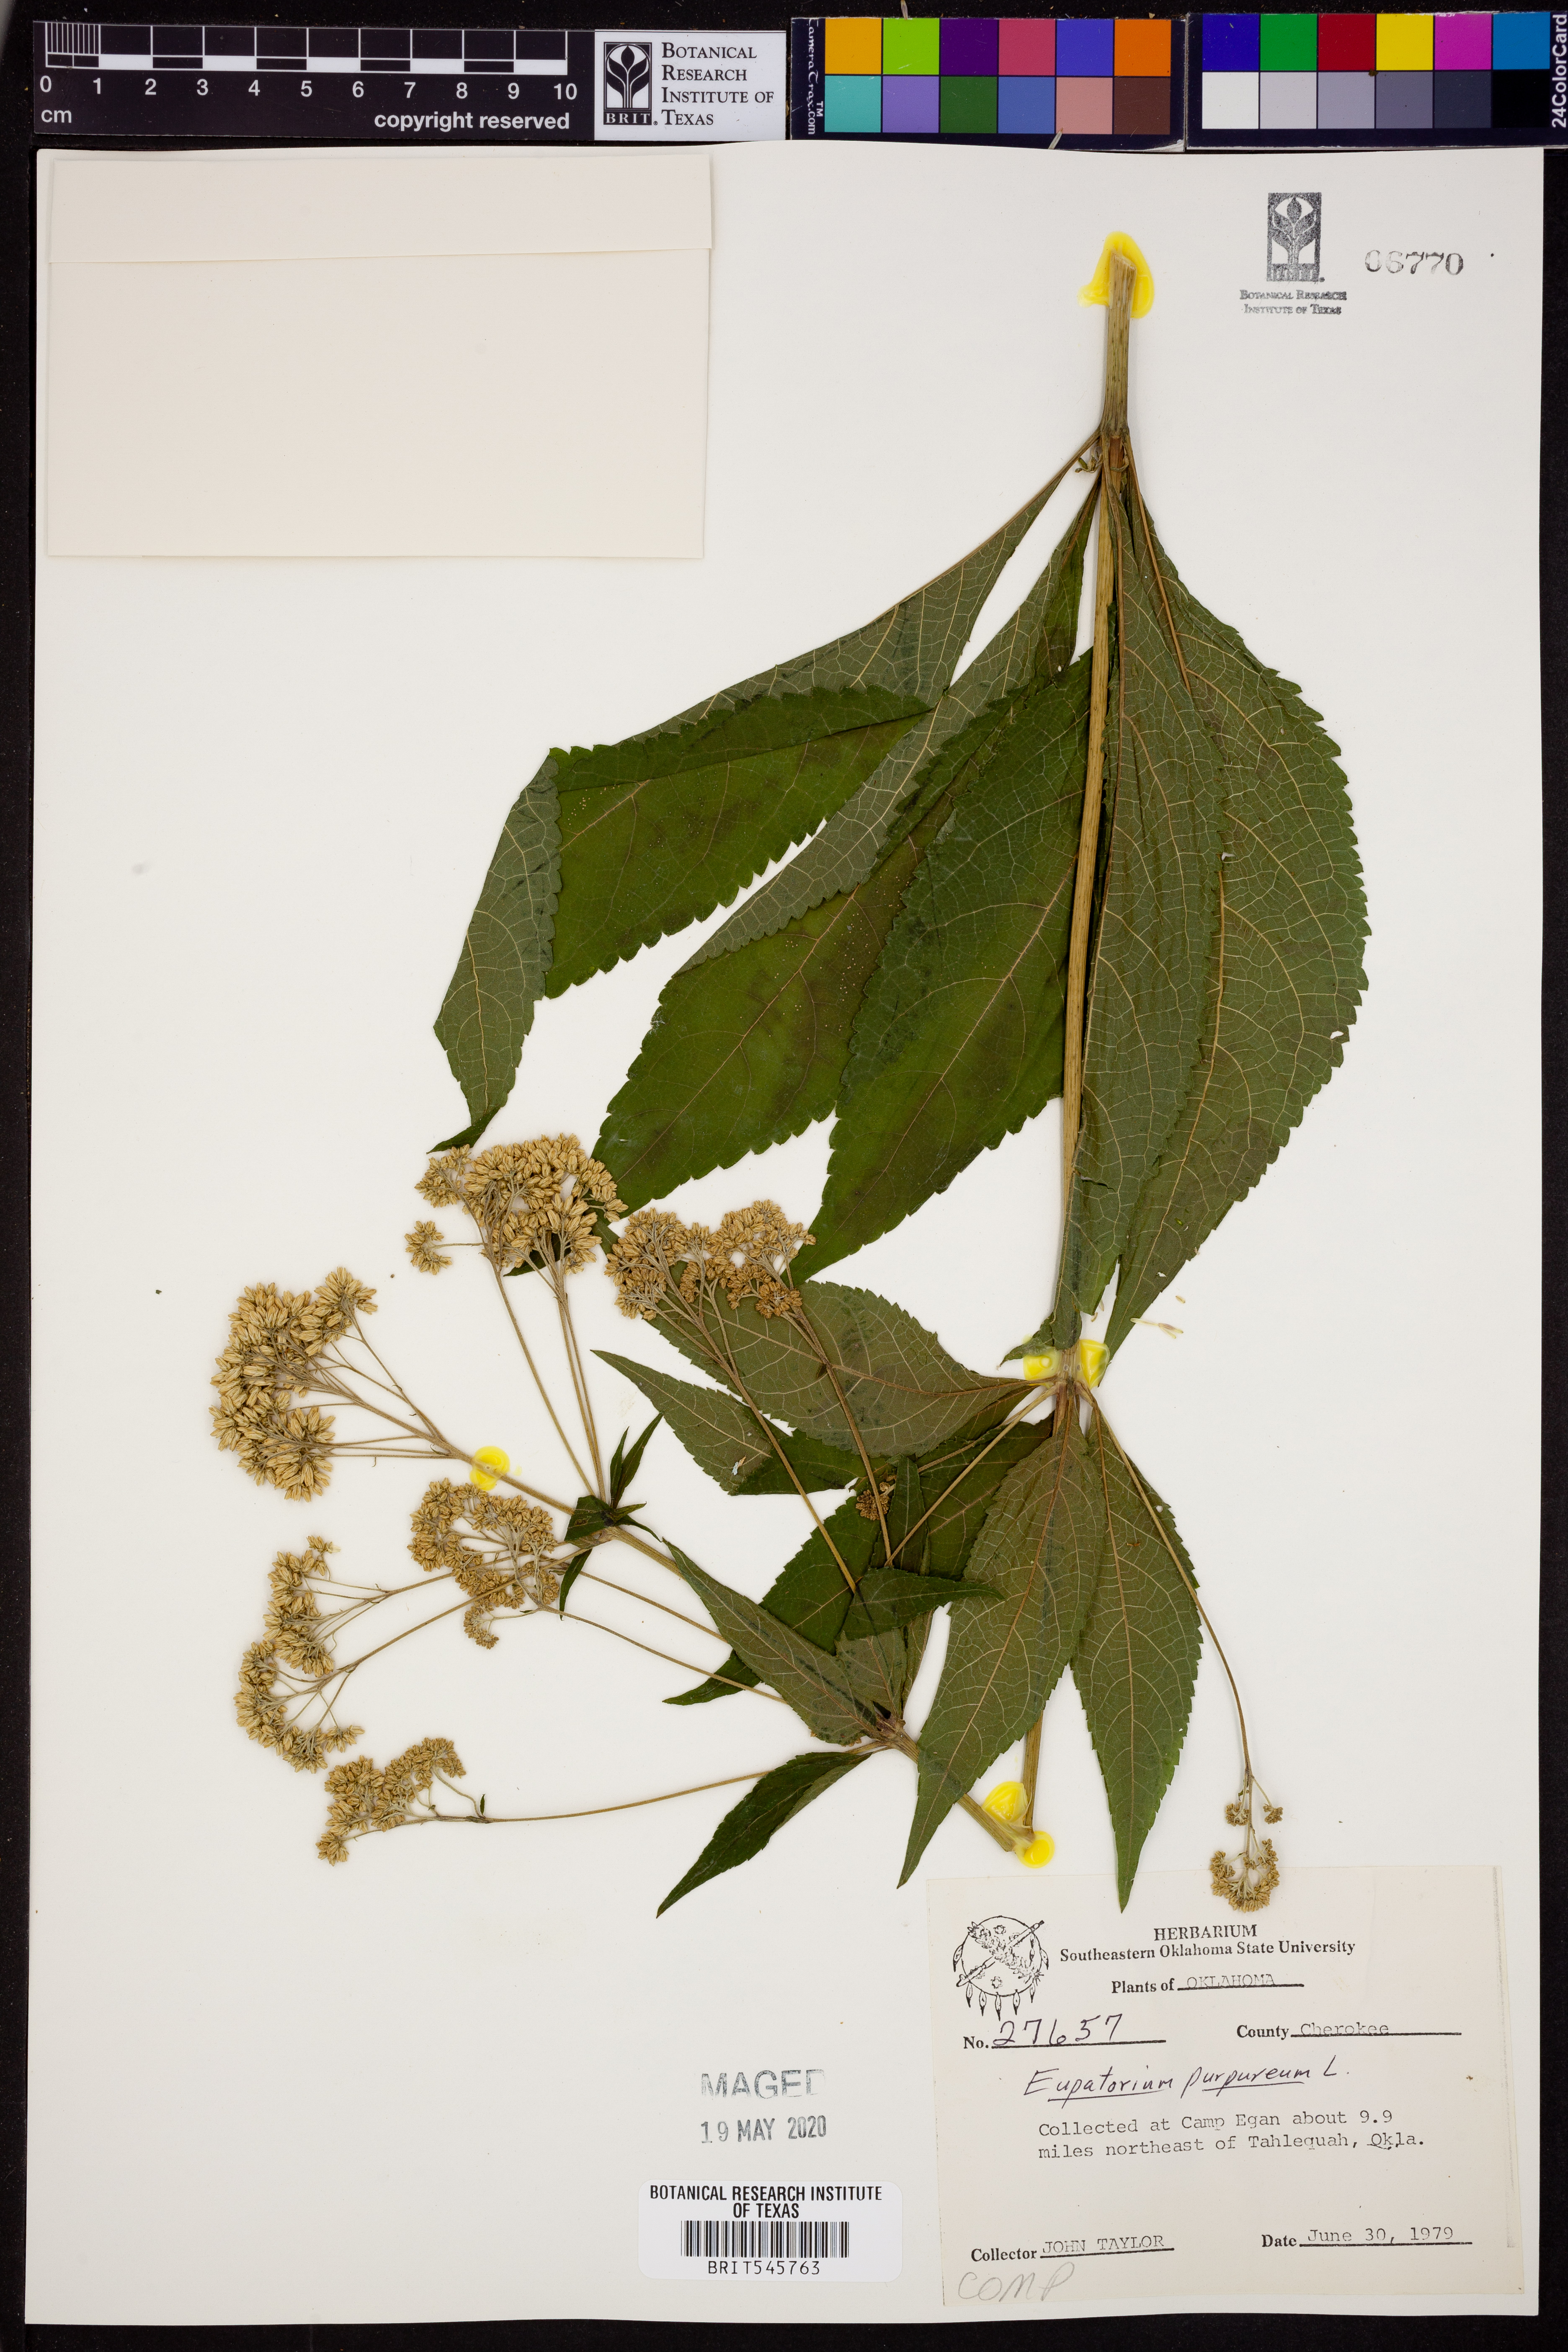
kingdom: Plantae
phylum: Tracheophyta
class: Magnoliopsida
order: Asterales
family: Asteraceae
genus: Eupatorium
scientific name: Eupatorium quaternum
